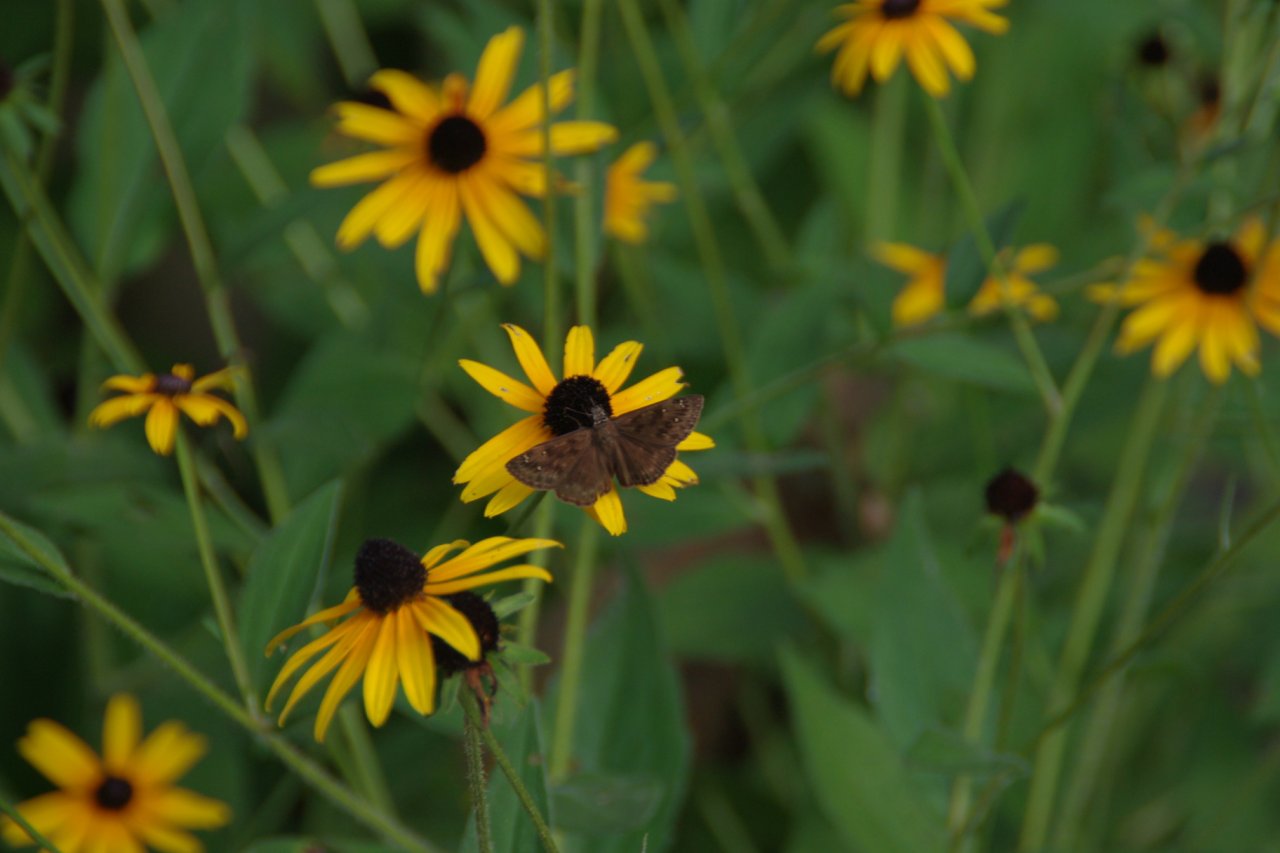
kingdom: Animalia
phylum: Arthropoda
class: Insecta
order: Lepidoptera
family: Hesperiidae
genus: Gesta
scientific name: Gesta
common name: Horace's Duskywing
